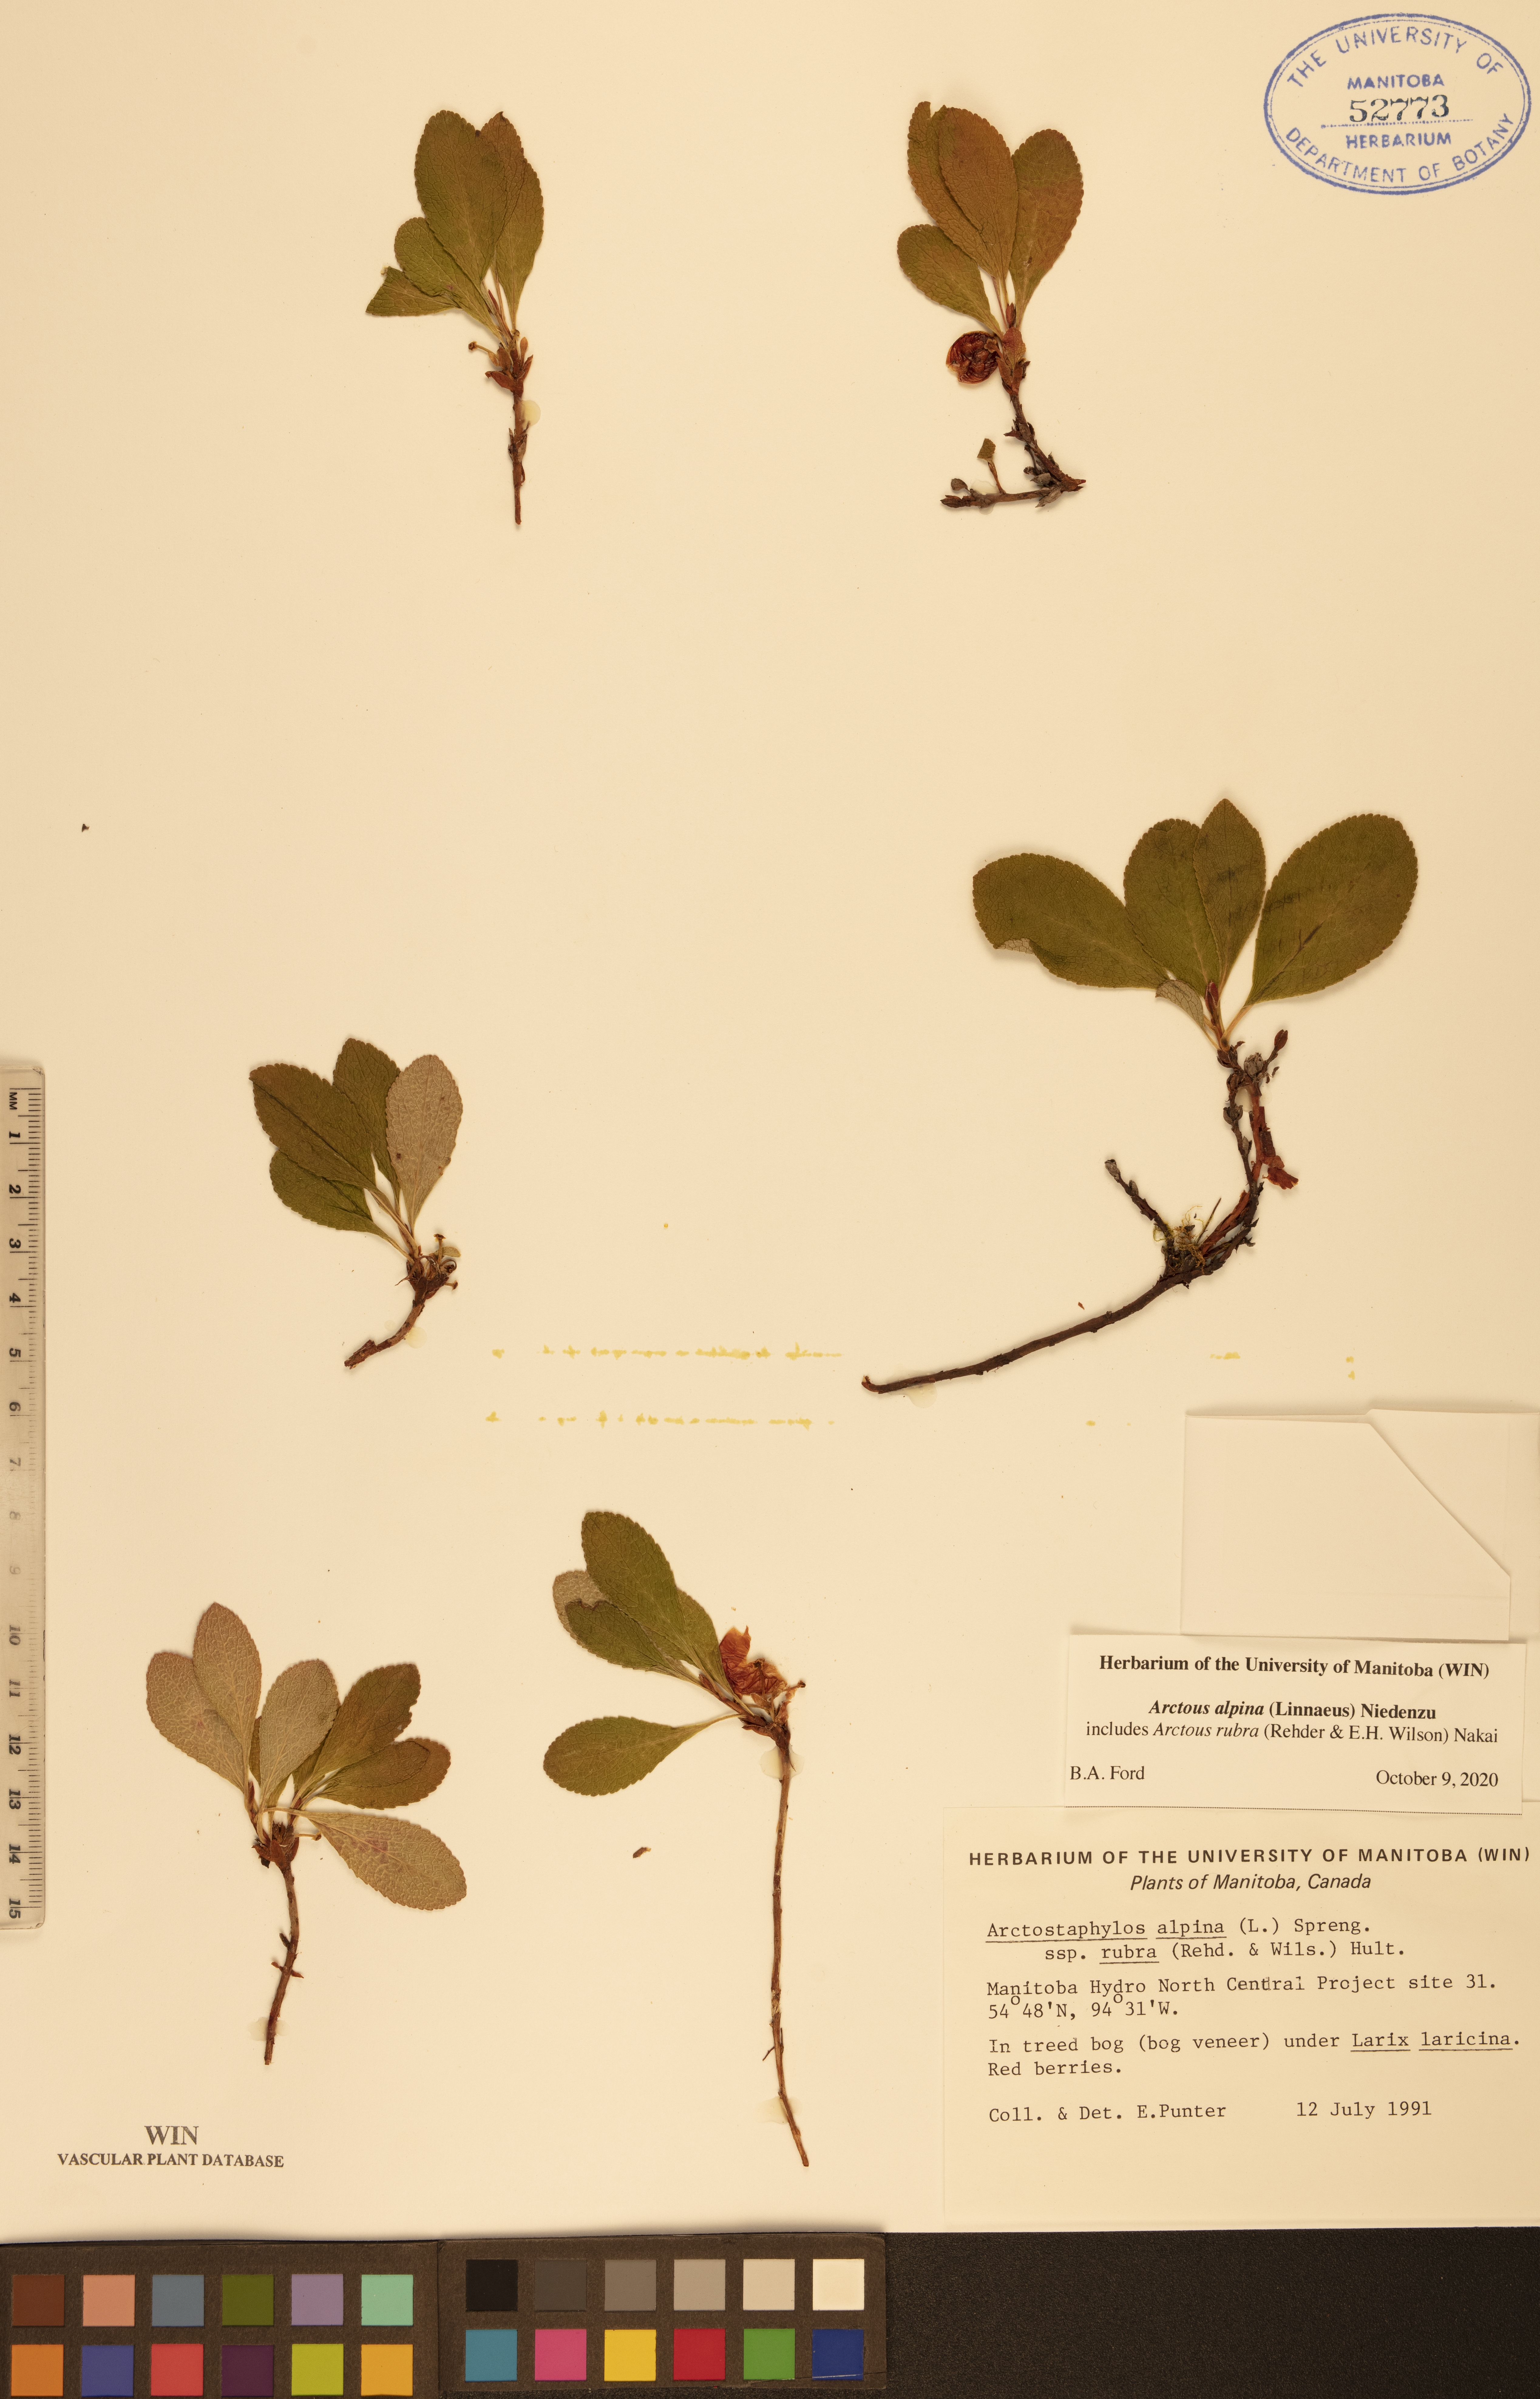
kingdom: Plantae
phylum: Tracheophyta
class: Magnoliopsida
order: Ericales
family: Ericaceae
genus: Arctostaphylos
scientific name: Arctostaphylos alpinus
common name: Alpine bearberry
